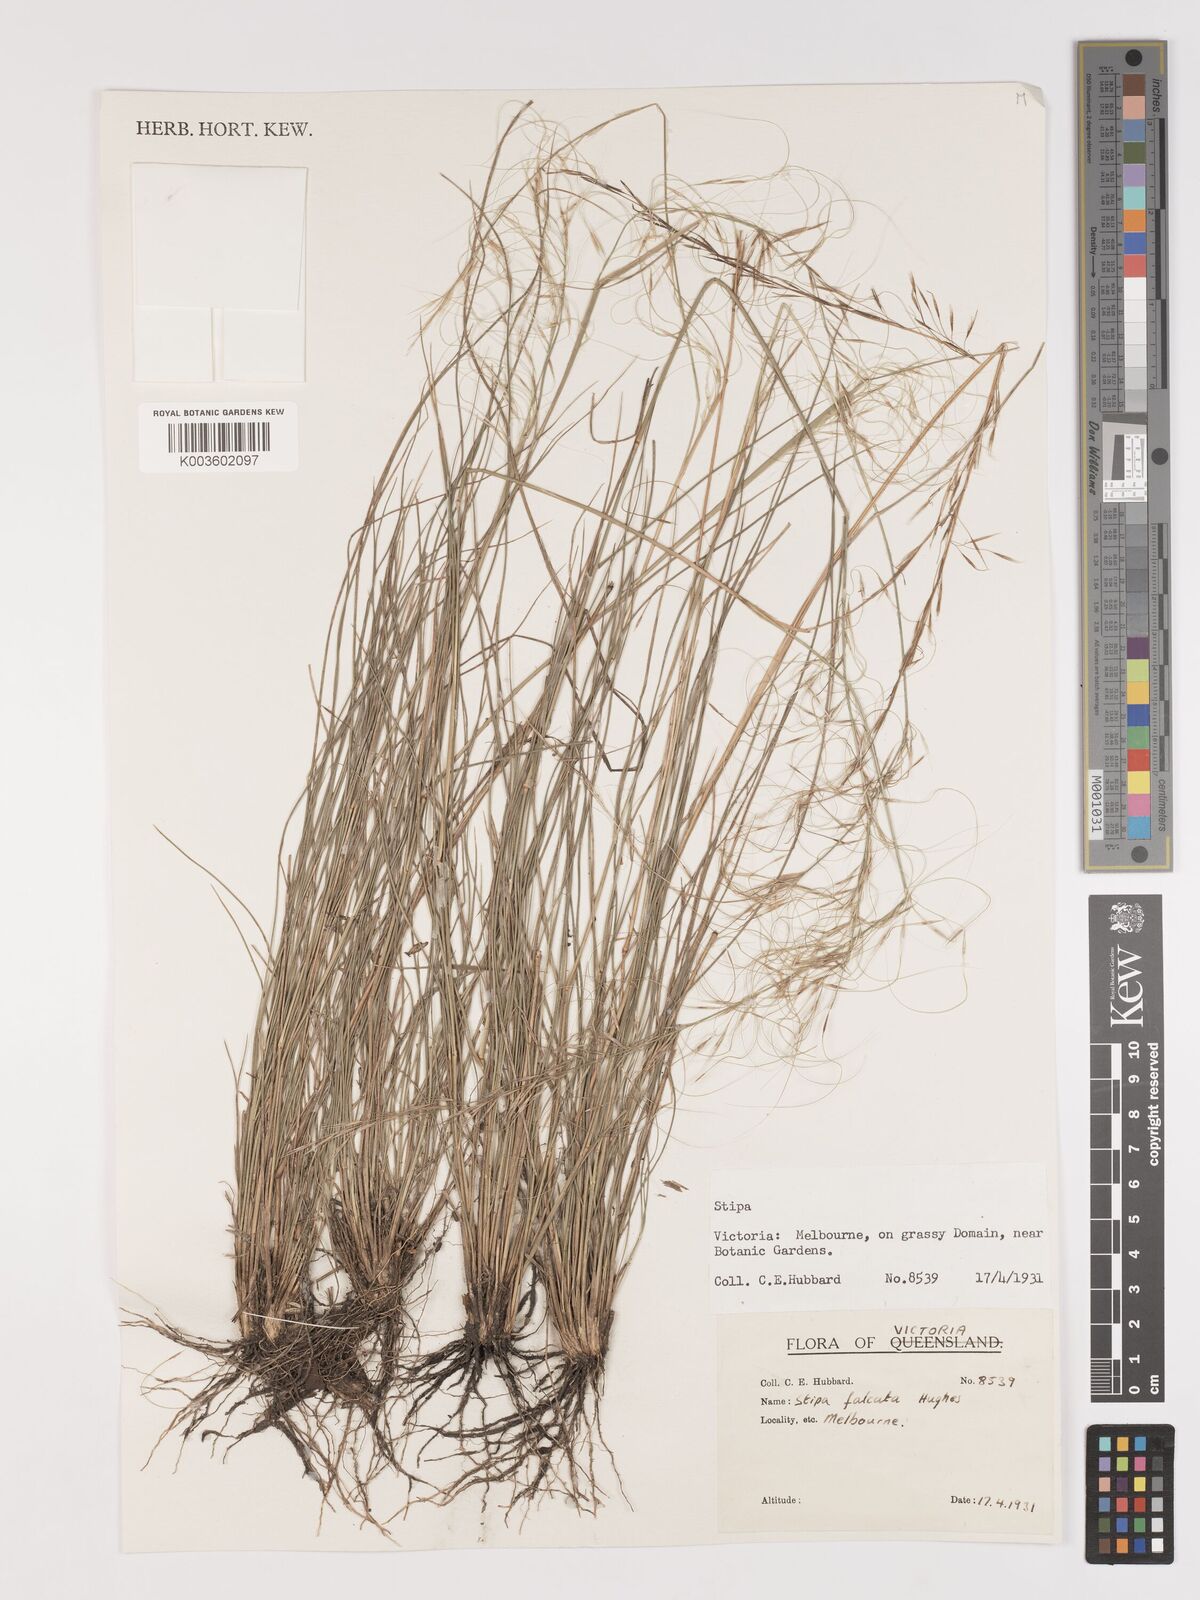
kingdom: Plantae
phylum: Tracheophyta
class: Liliopsida
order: Poales
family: Poaceae
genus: Austrostipa
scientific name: Austrostipa scabra
